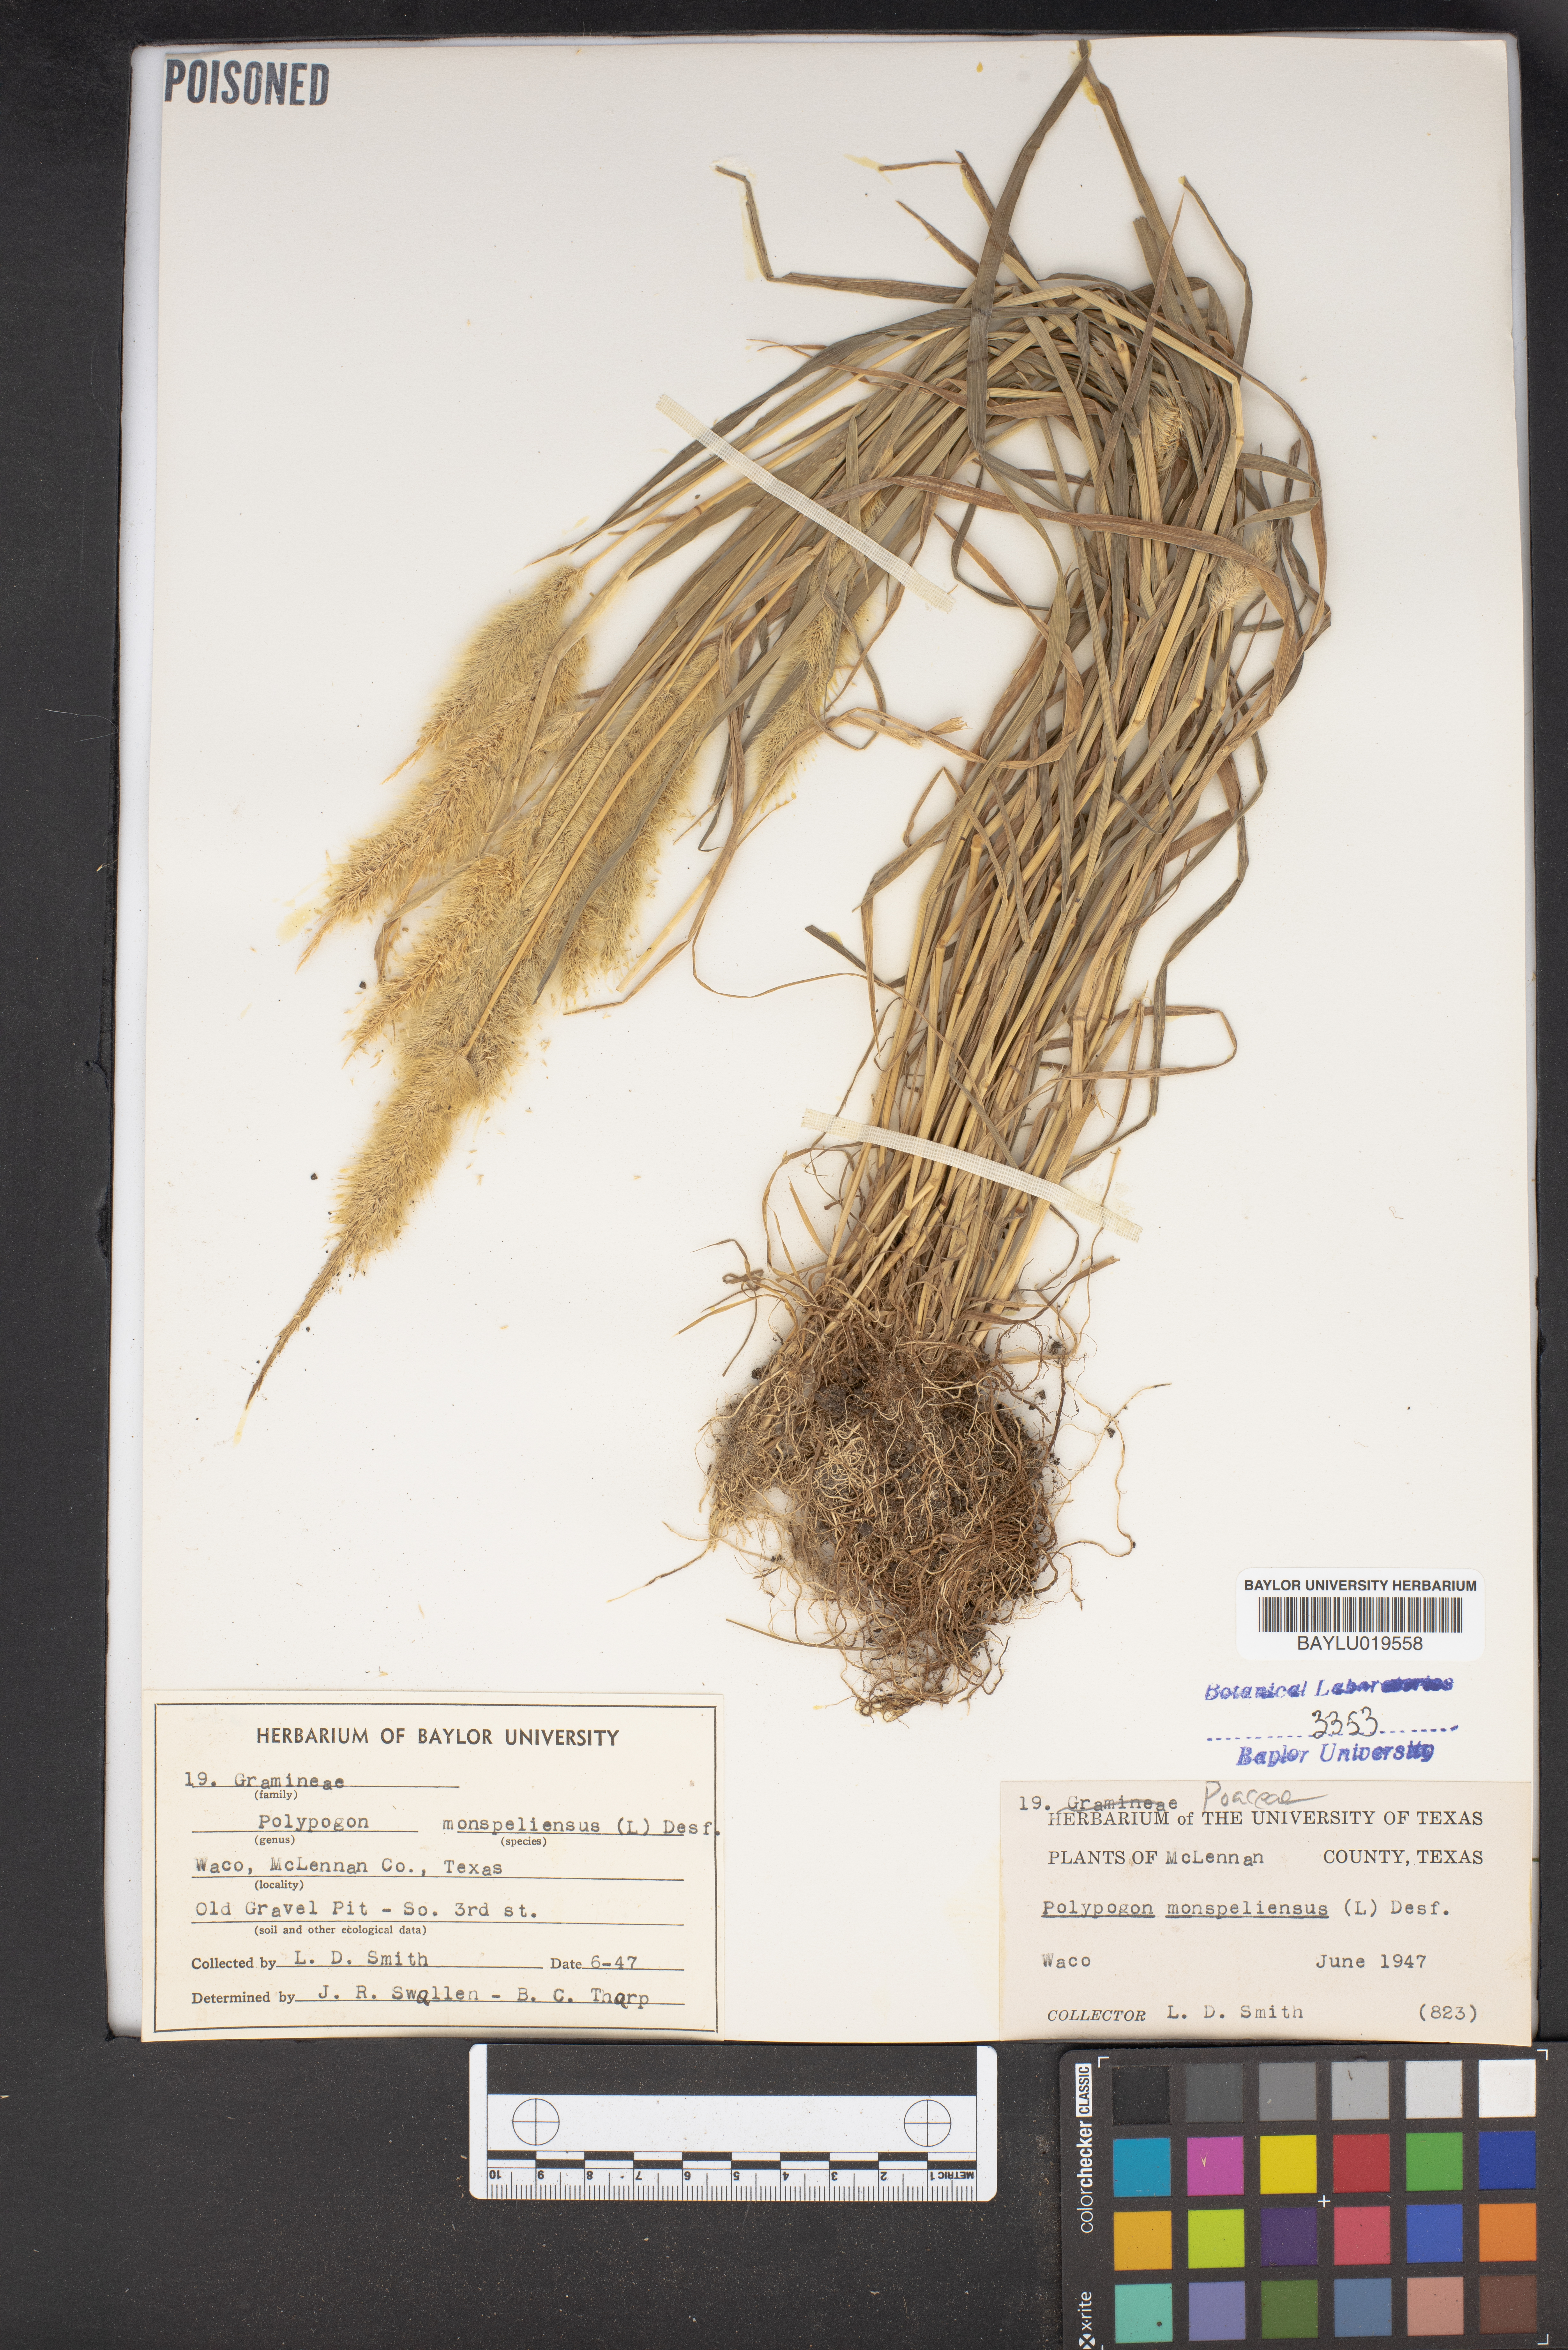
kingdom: Plantae
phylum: Tracheophyta
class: Liliopsida
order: Poales
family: Poaceae
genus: Polypogon
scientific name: Polypogon monspeliensis
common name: Annual rabbitsfoot grass
